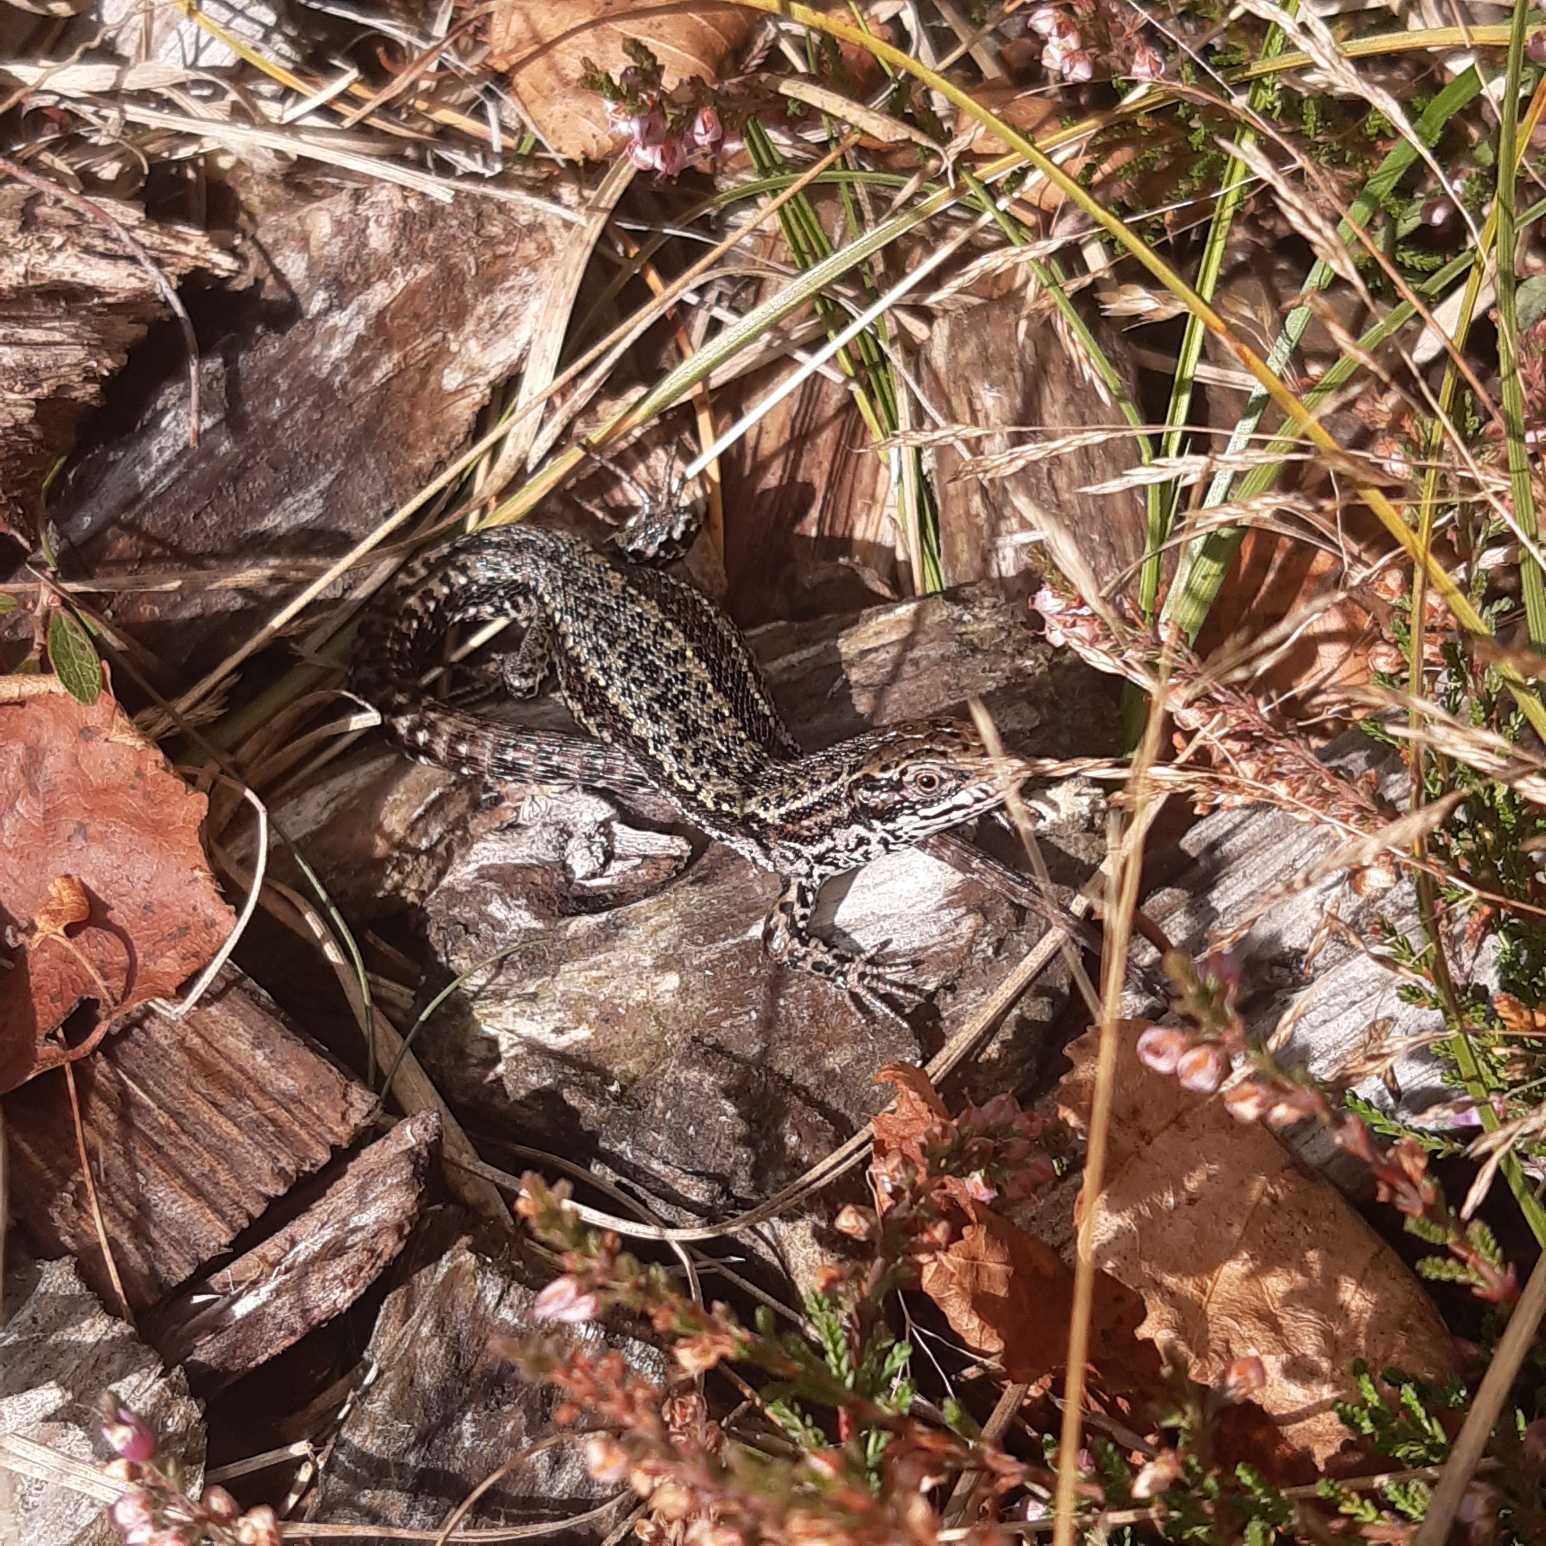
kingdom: Animalia
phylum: Chordata
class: Squamata
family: Lacertidae
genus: Zootoca
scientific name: Zootoca vivipara
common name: Skovfirben
